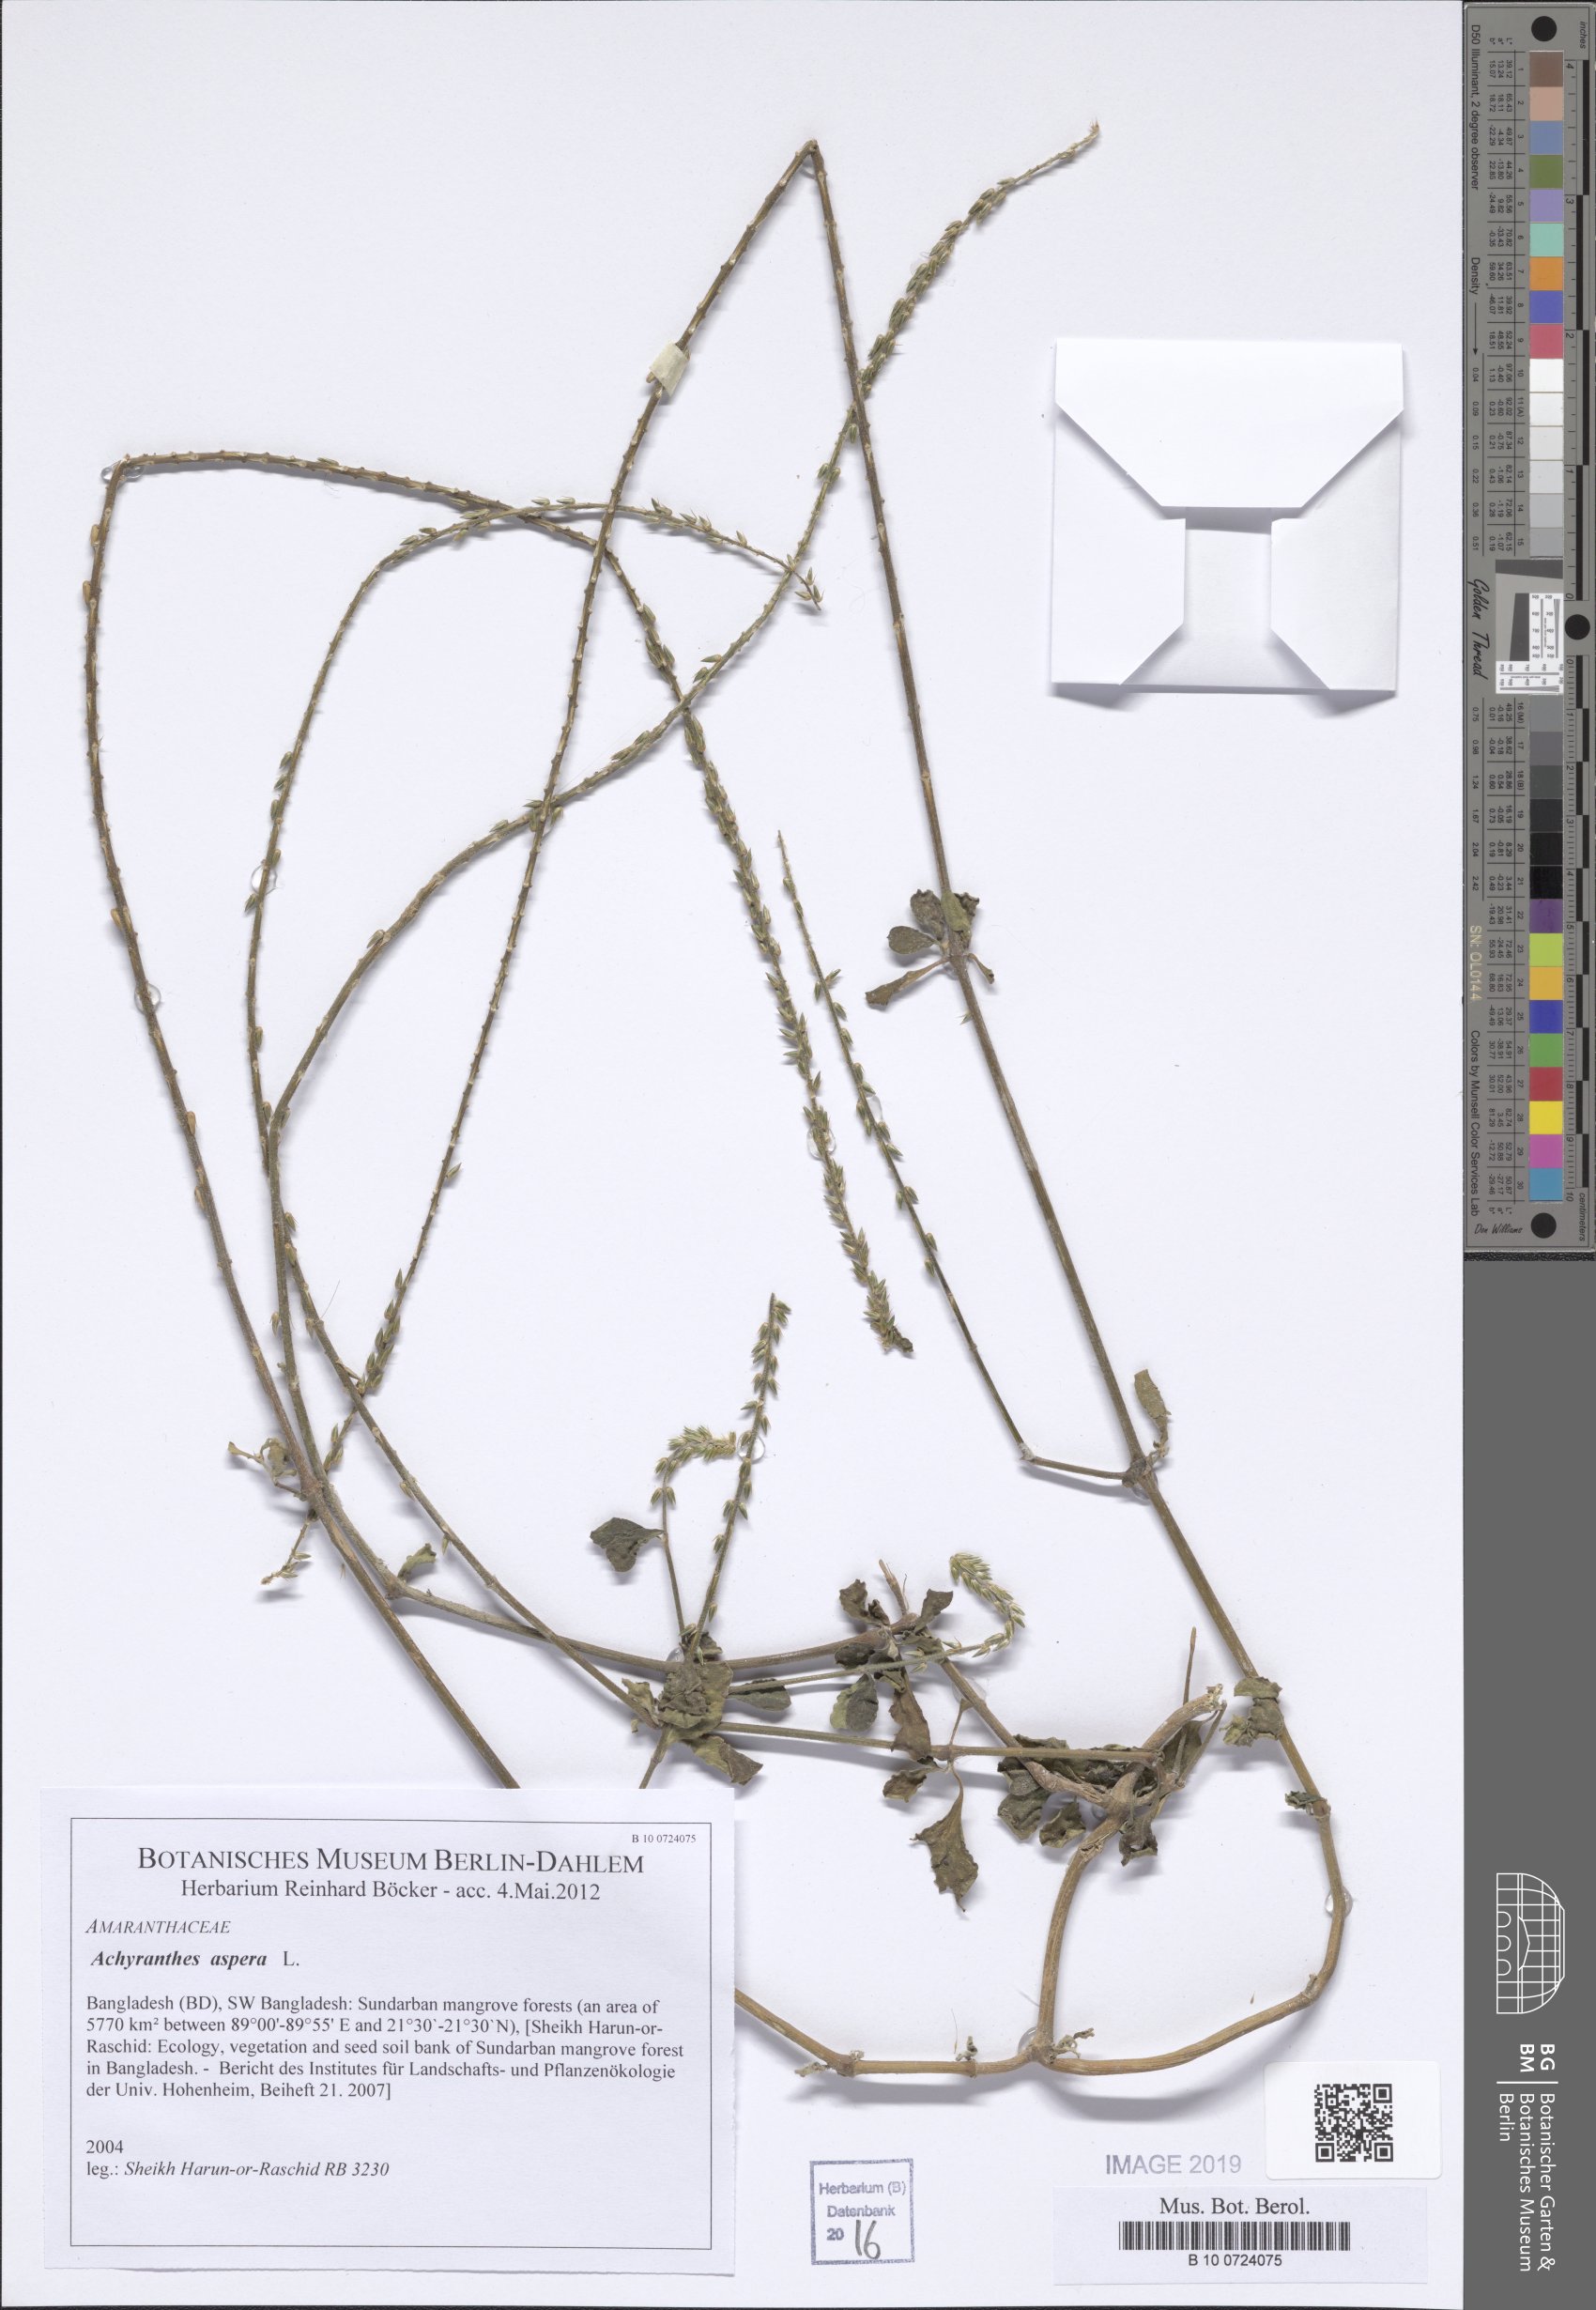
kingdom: Plantae
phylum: Tracheophyta
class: Magnoliopsida
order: Caryophyllales
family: Amaranthaceae
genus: Achyranthes
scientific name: Achyranthes aspera
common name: Devil's horsewhip
